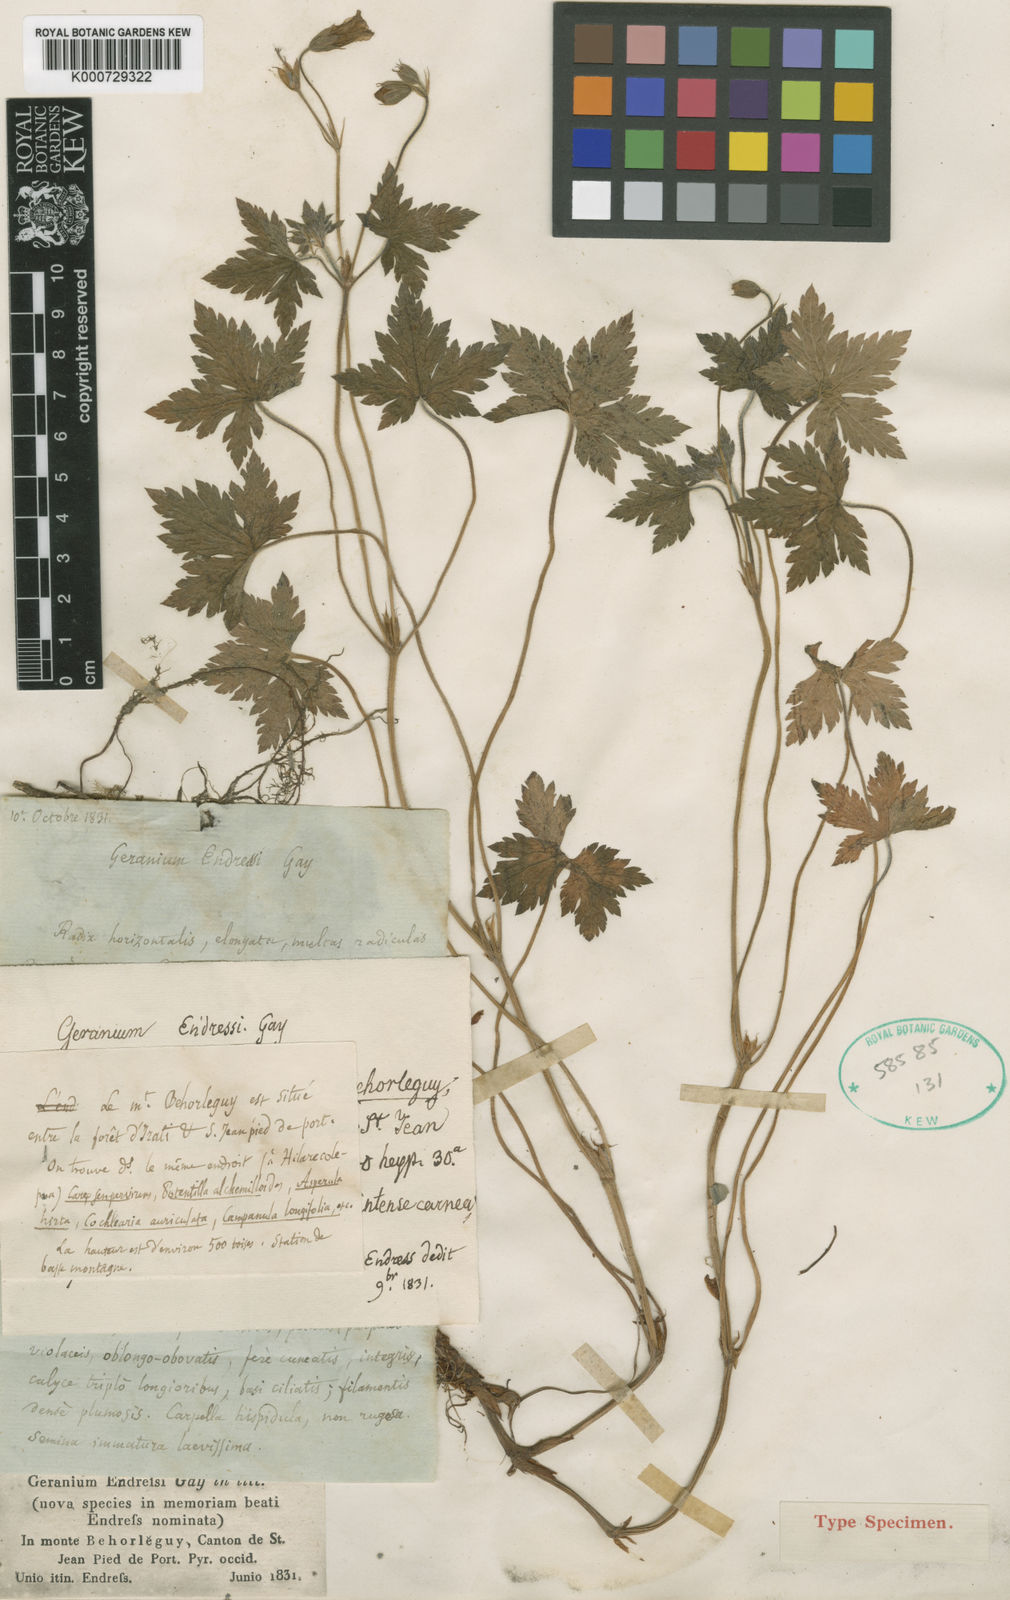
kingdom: Plantae
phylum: Tracheophyta
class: Magnoliopsida
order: Geraniales
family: Geraniaceae
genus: Geranium
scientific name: Geranium endressii
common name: French crane's-bill
